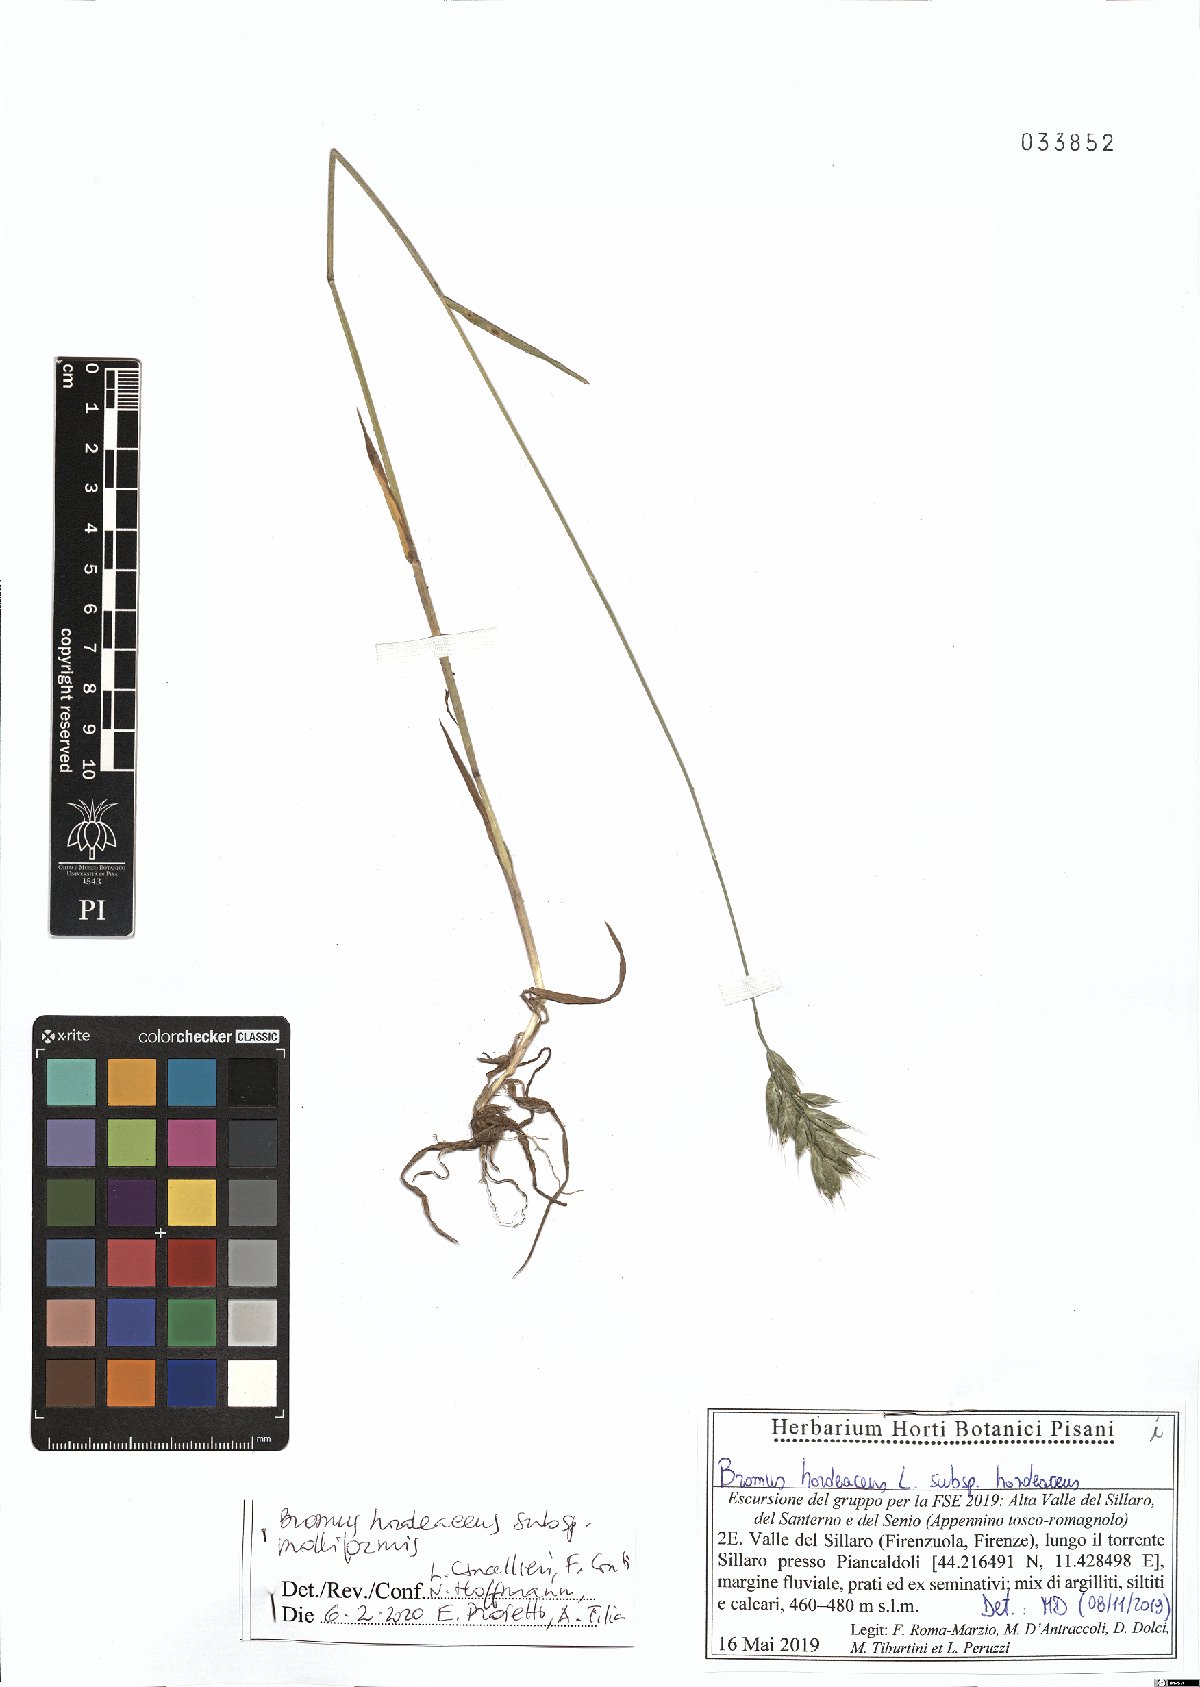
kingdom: Plantae
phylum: Tracheophyta
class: Liliopsida
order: Poales
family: Poaceae
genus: Bromus
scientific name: Bromus hordeaceus
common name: Soft brome
